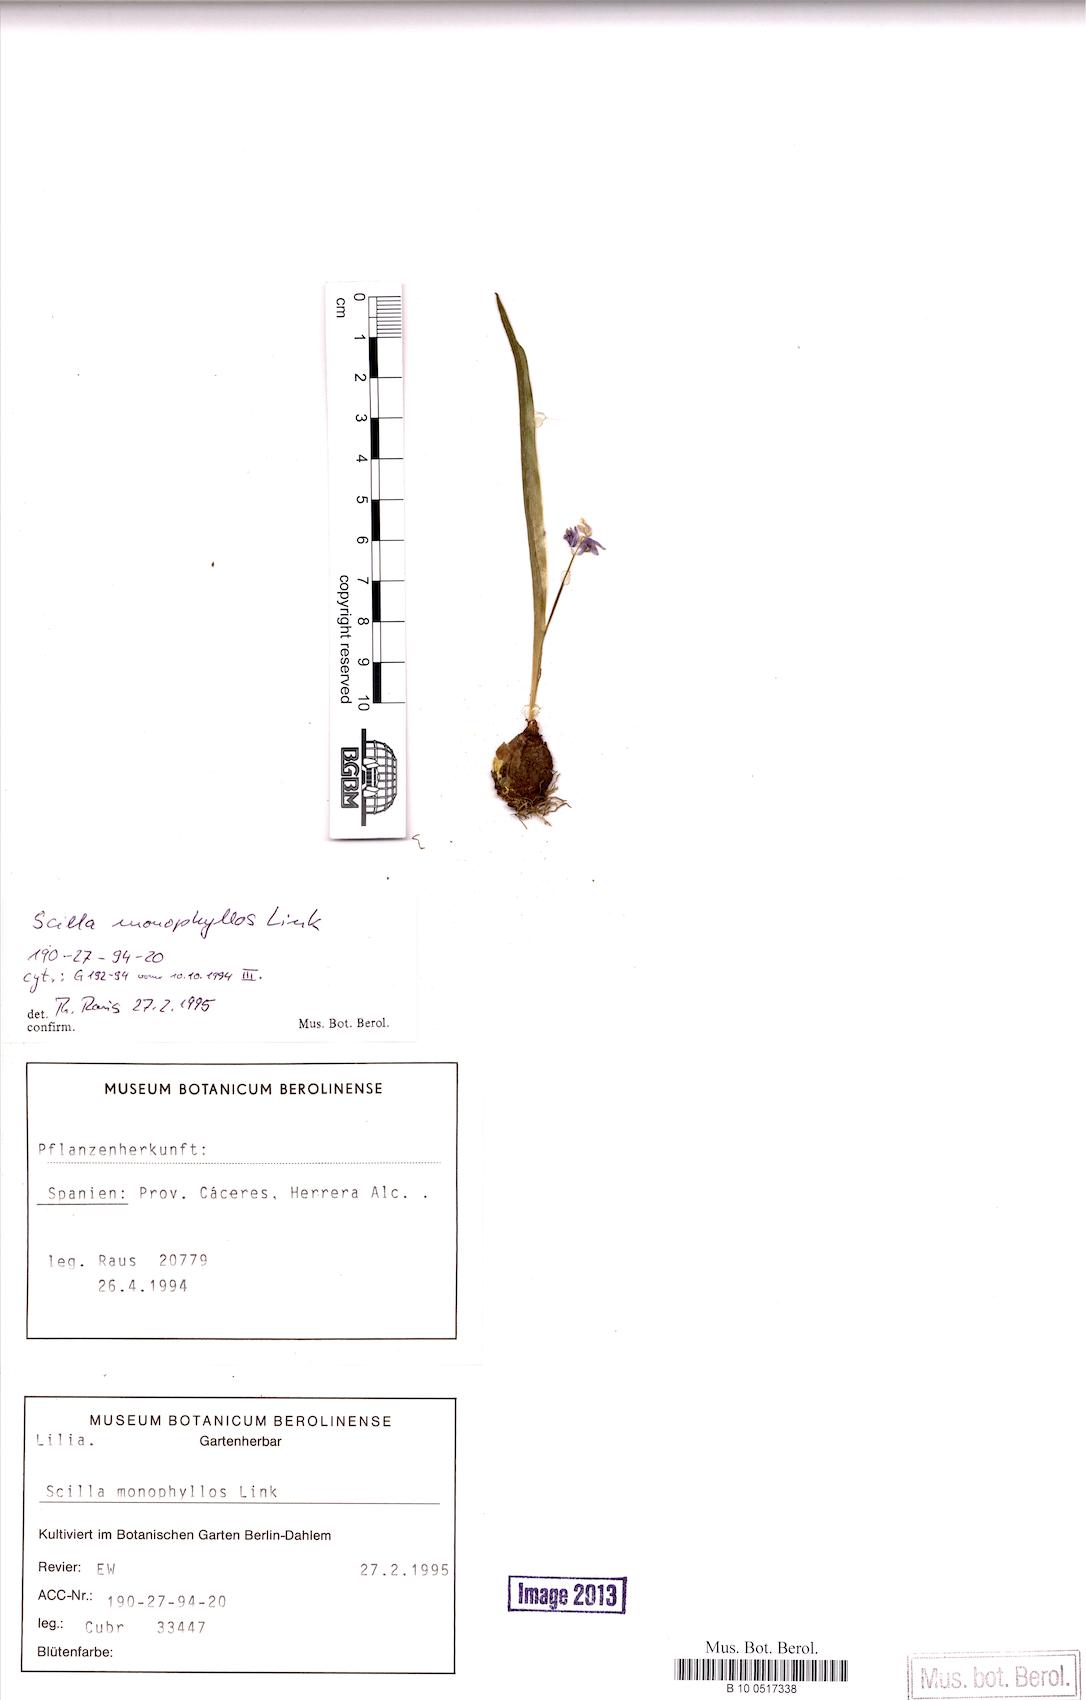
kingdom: Plantae
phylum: Tracheophyta
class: Liliopsida
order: Asparagales
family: Asparagaceae
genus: Scilla
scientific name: Scilla monophyllos
